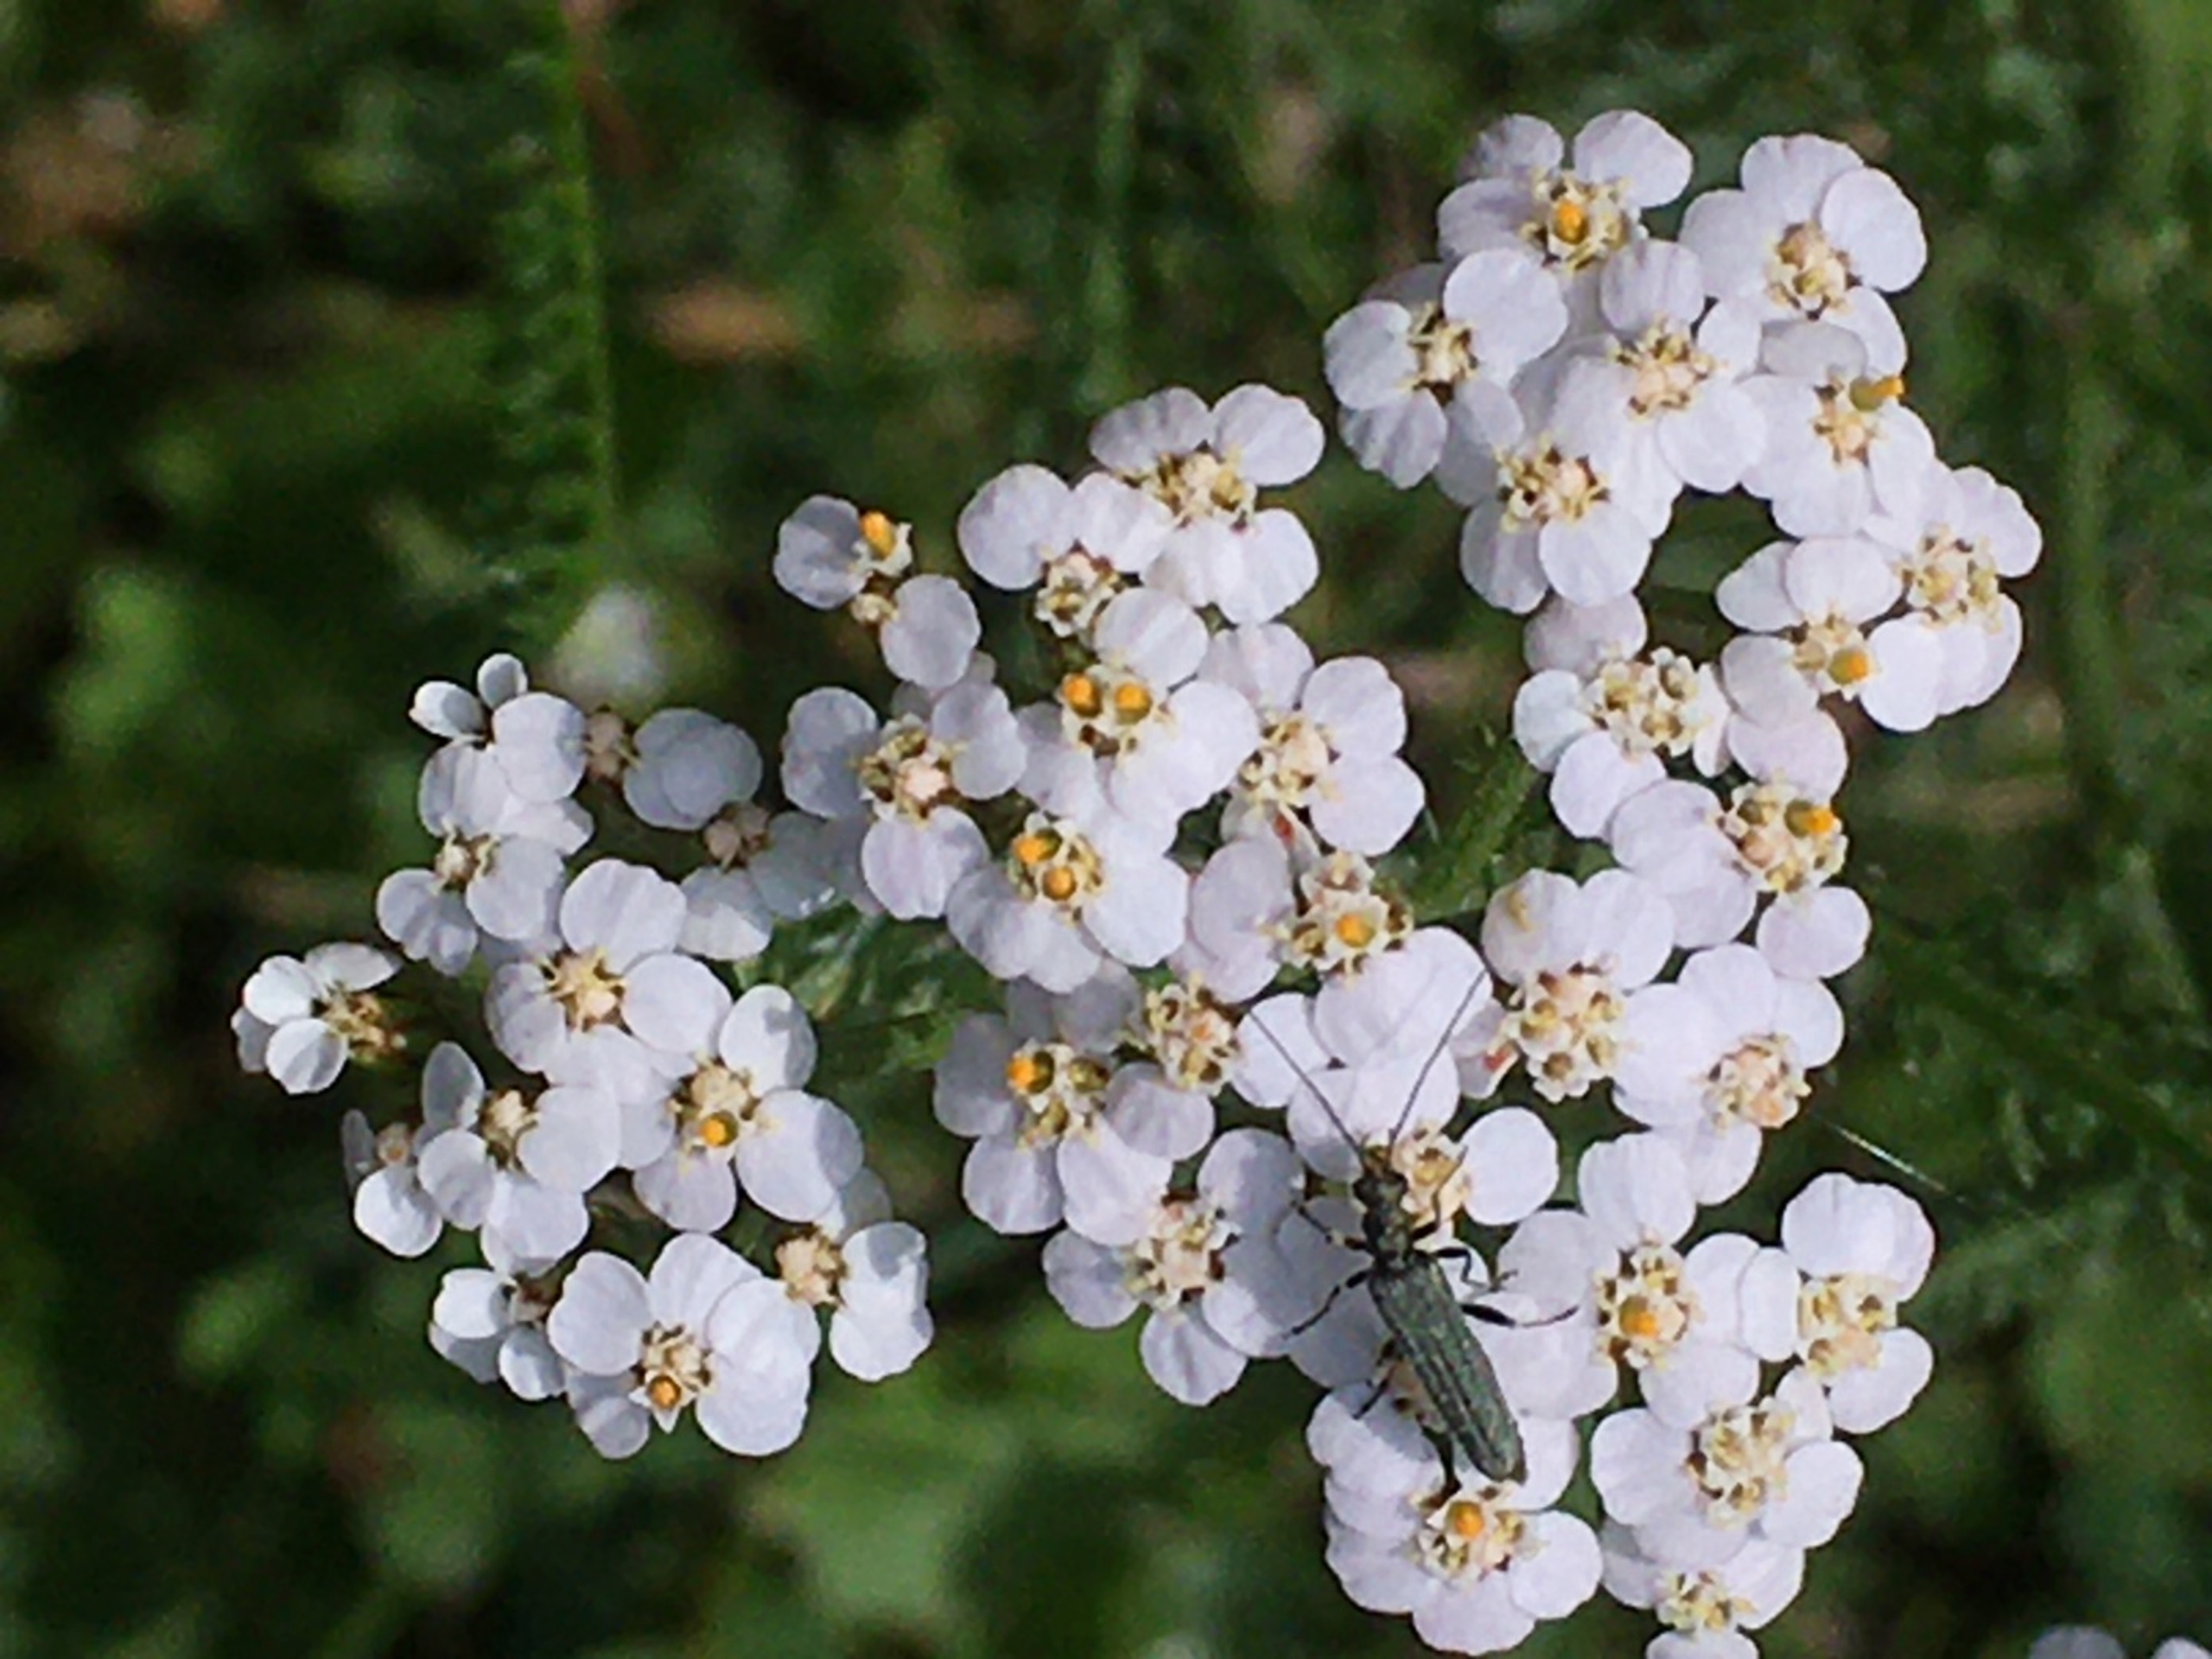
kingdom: Plantae
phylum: Tracheophyta
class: Magnoliopsida
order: Asterales
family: Asteraceae
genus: Achillea
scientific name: Achillea millefolium
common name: Almindelig røllike
